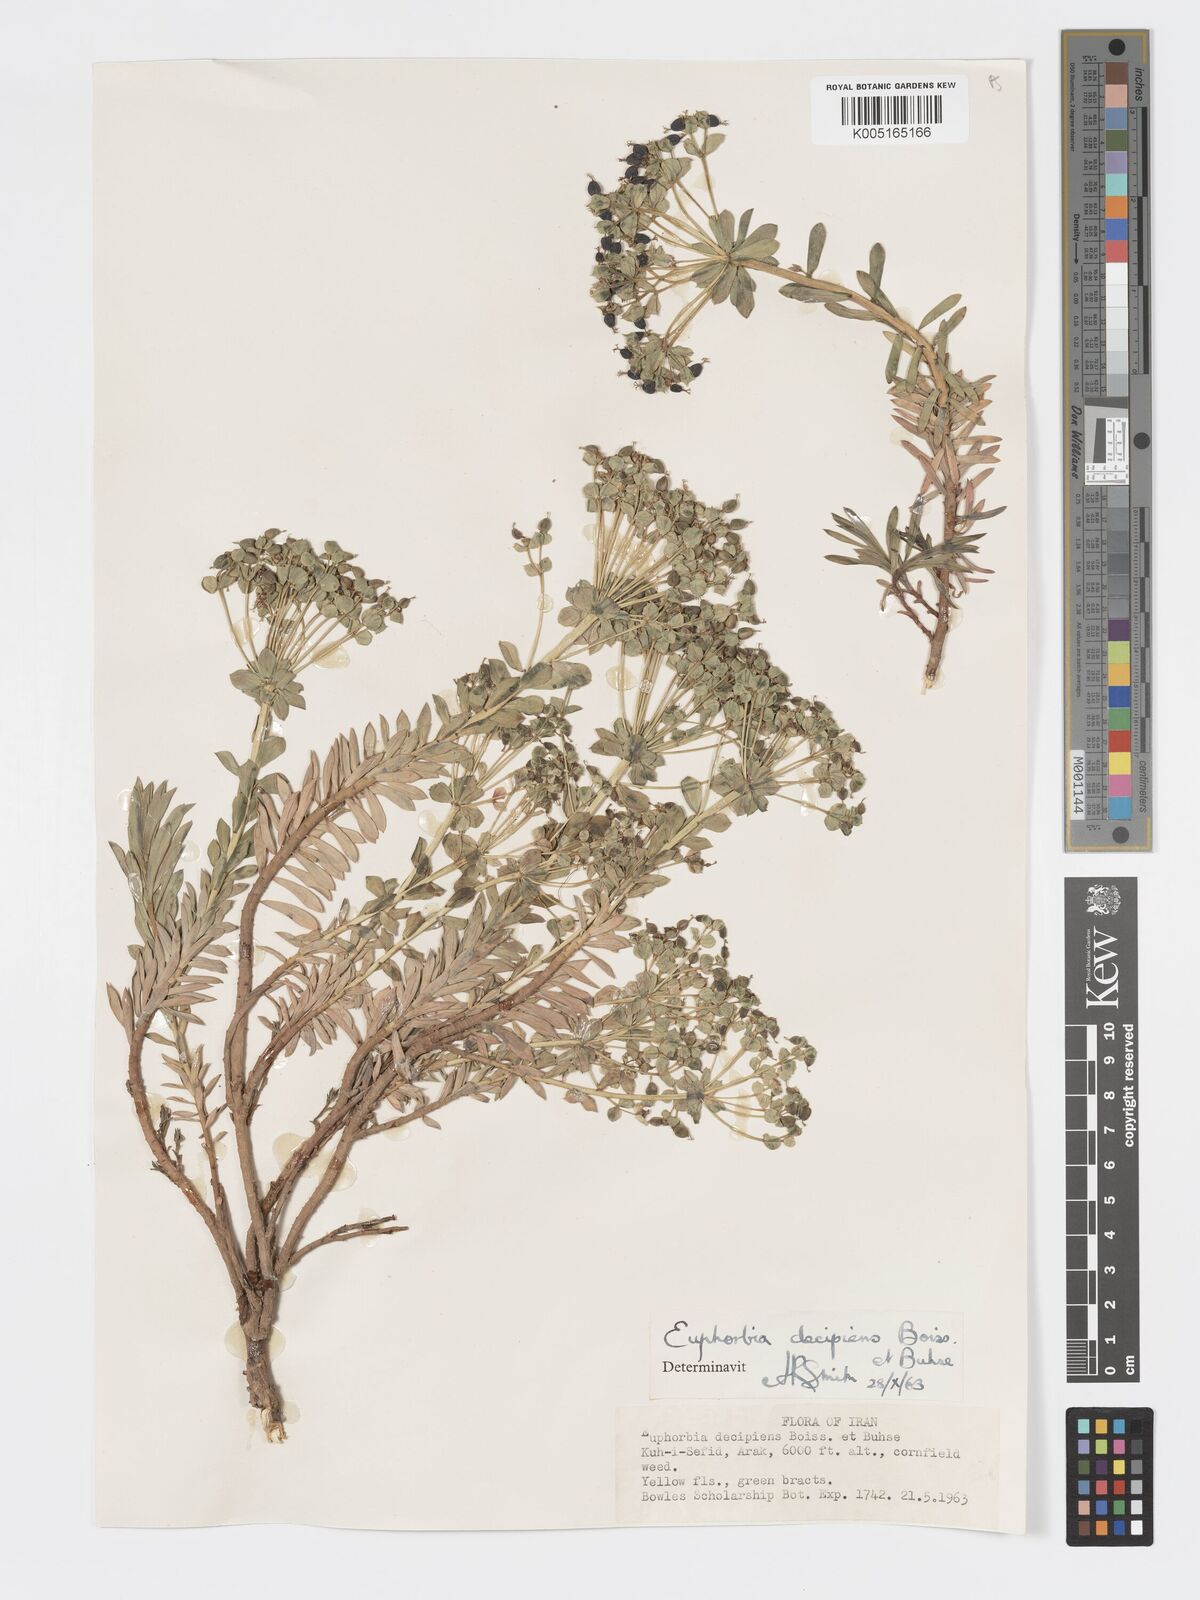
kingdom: Plantae
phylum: Tracheophyta
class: Magnoliopsida
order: Malpighiales
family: Euphorbiaceae
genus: Euphorbia
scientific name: Euphorbia polycaulis
